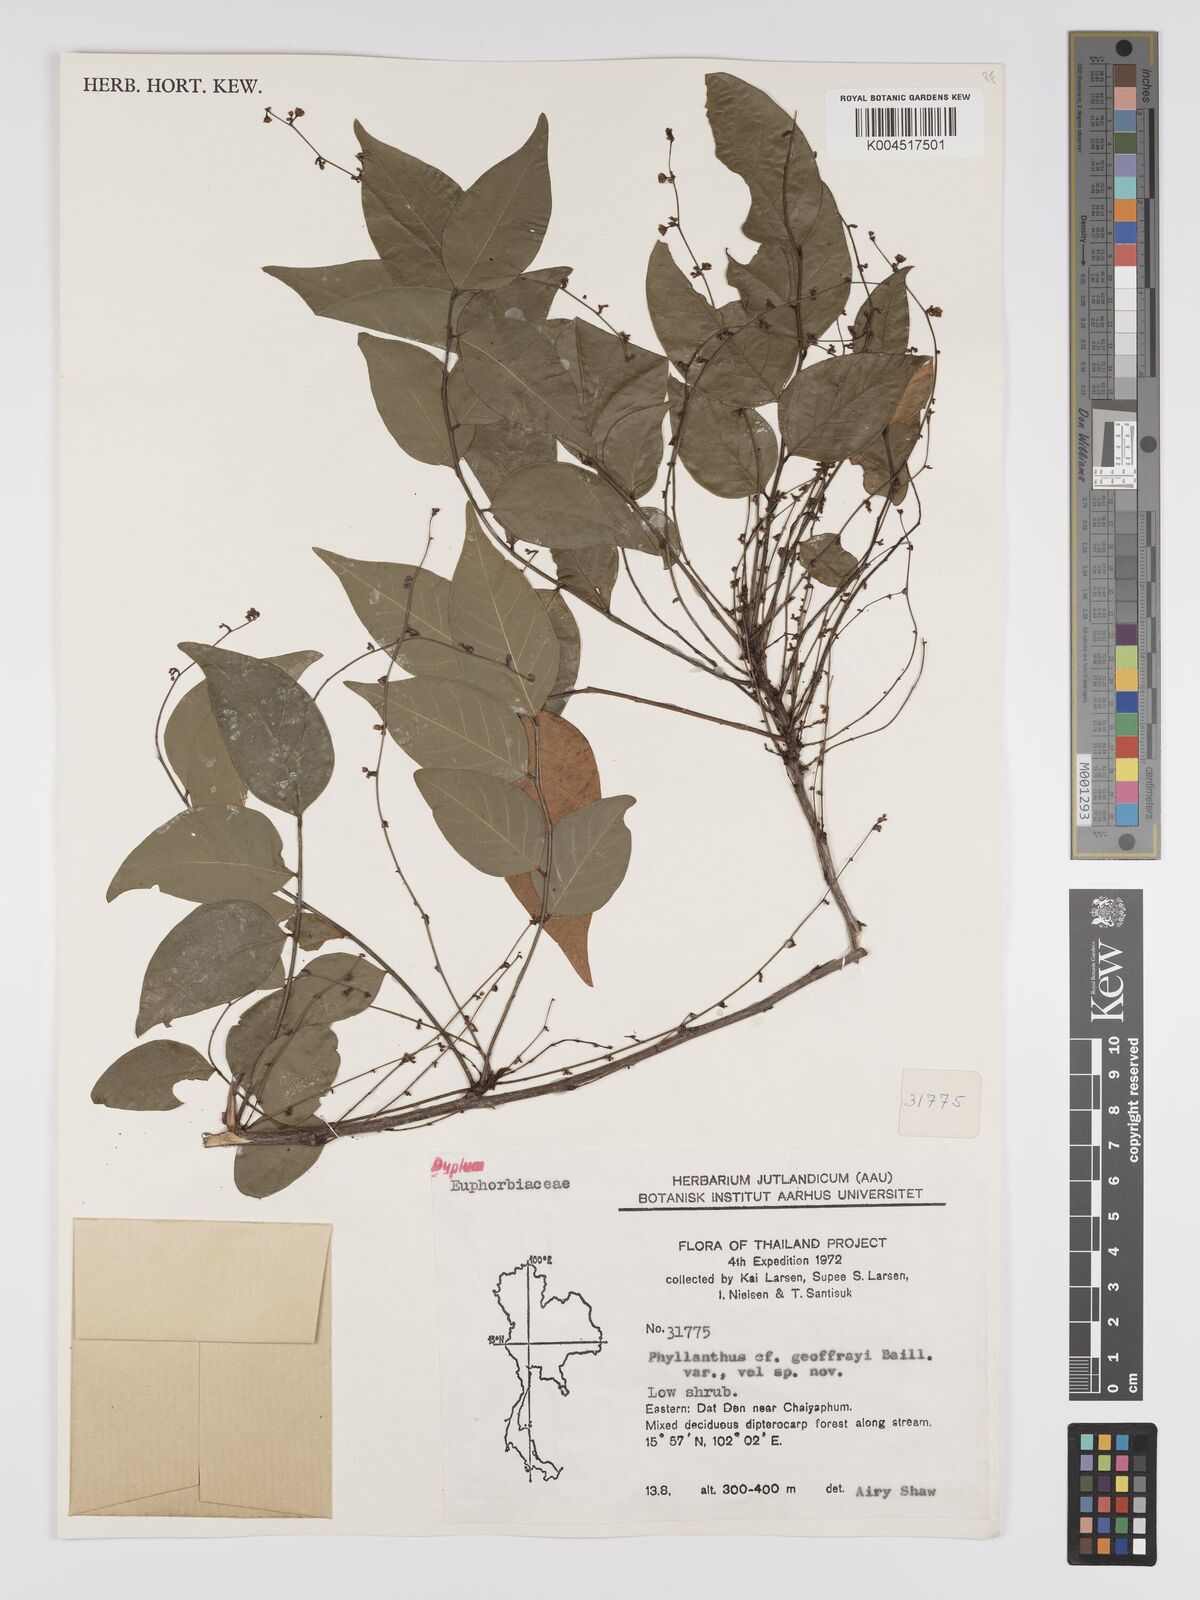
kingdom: Plantae
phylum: Tracheophyta
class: Magnoliopsida
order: Malpighiales
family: Phyllanthaceae
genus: Phyllanthus
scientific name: Phyllanthus geoffrayi
